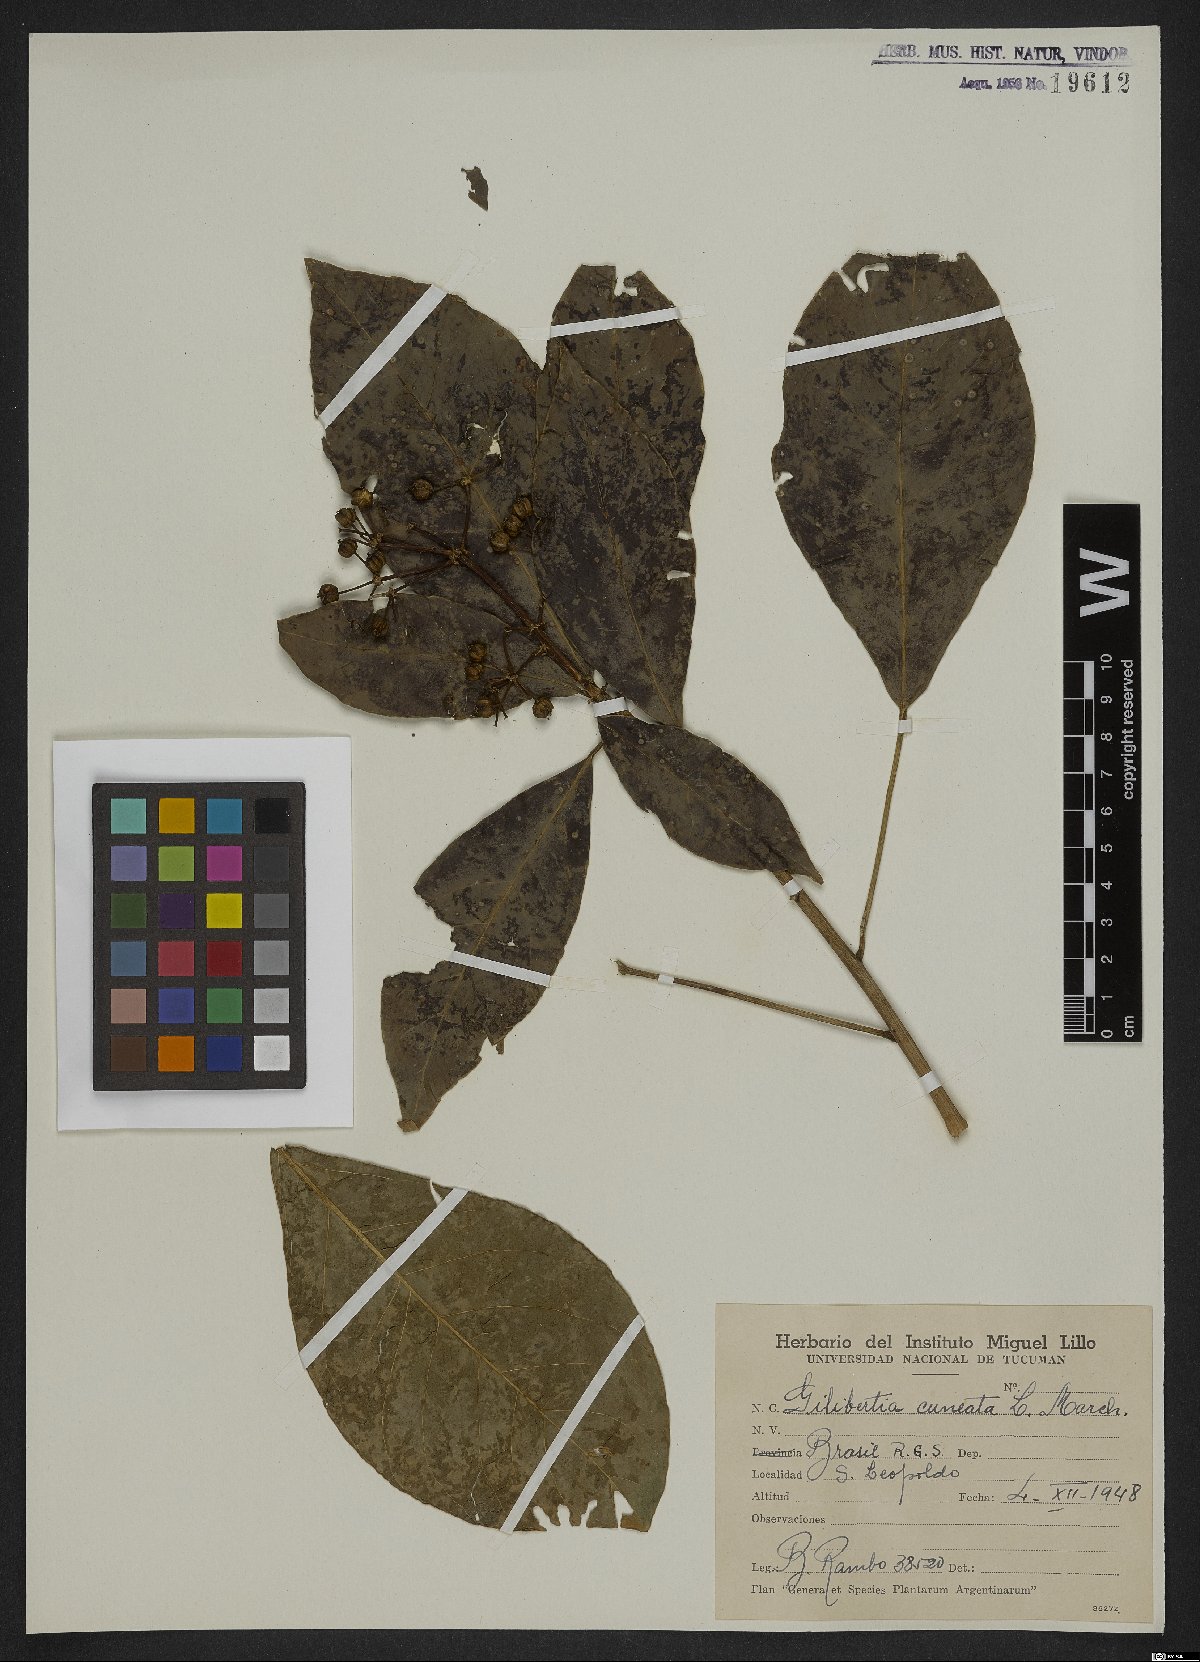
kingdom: Plantae
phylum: Tracheophyta
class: Magnoliopsida
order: Apiales
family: Araliaceae
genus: Dendropanax
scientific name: Dendropanax cuneatus
